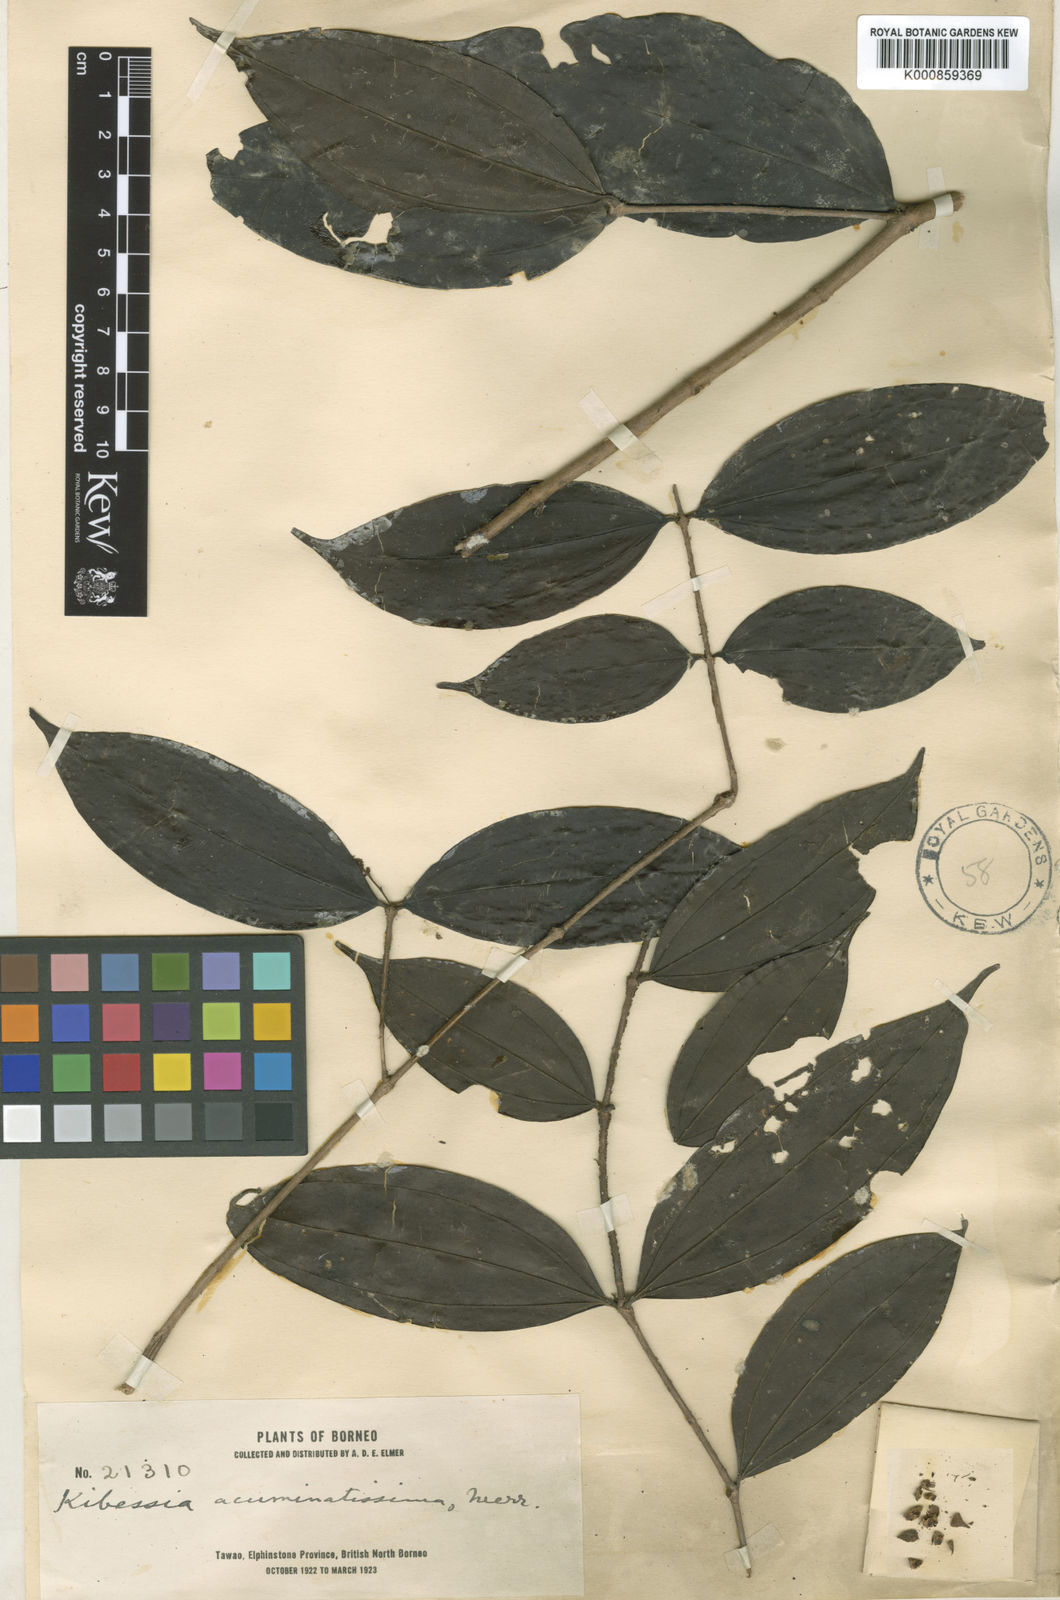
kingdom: Plantae
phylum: Tracheophyta
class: Magnoliopsida
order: Myrtales
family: Melastomataceae
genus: Pternandra
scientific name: Pternandra azurea
